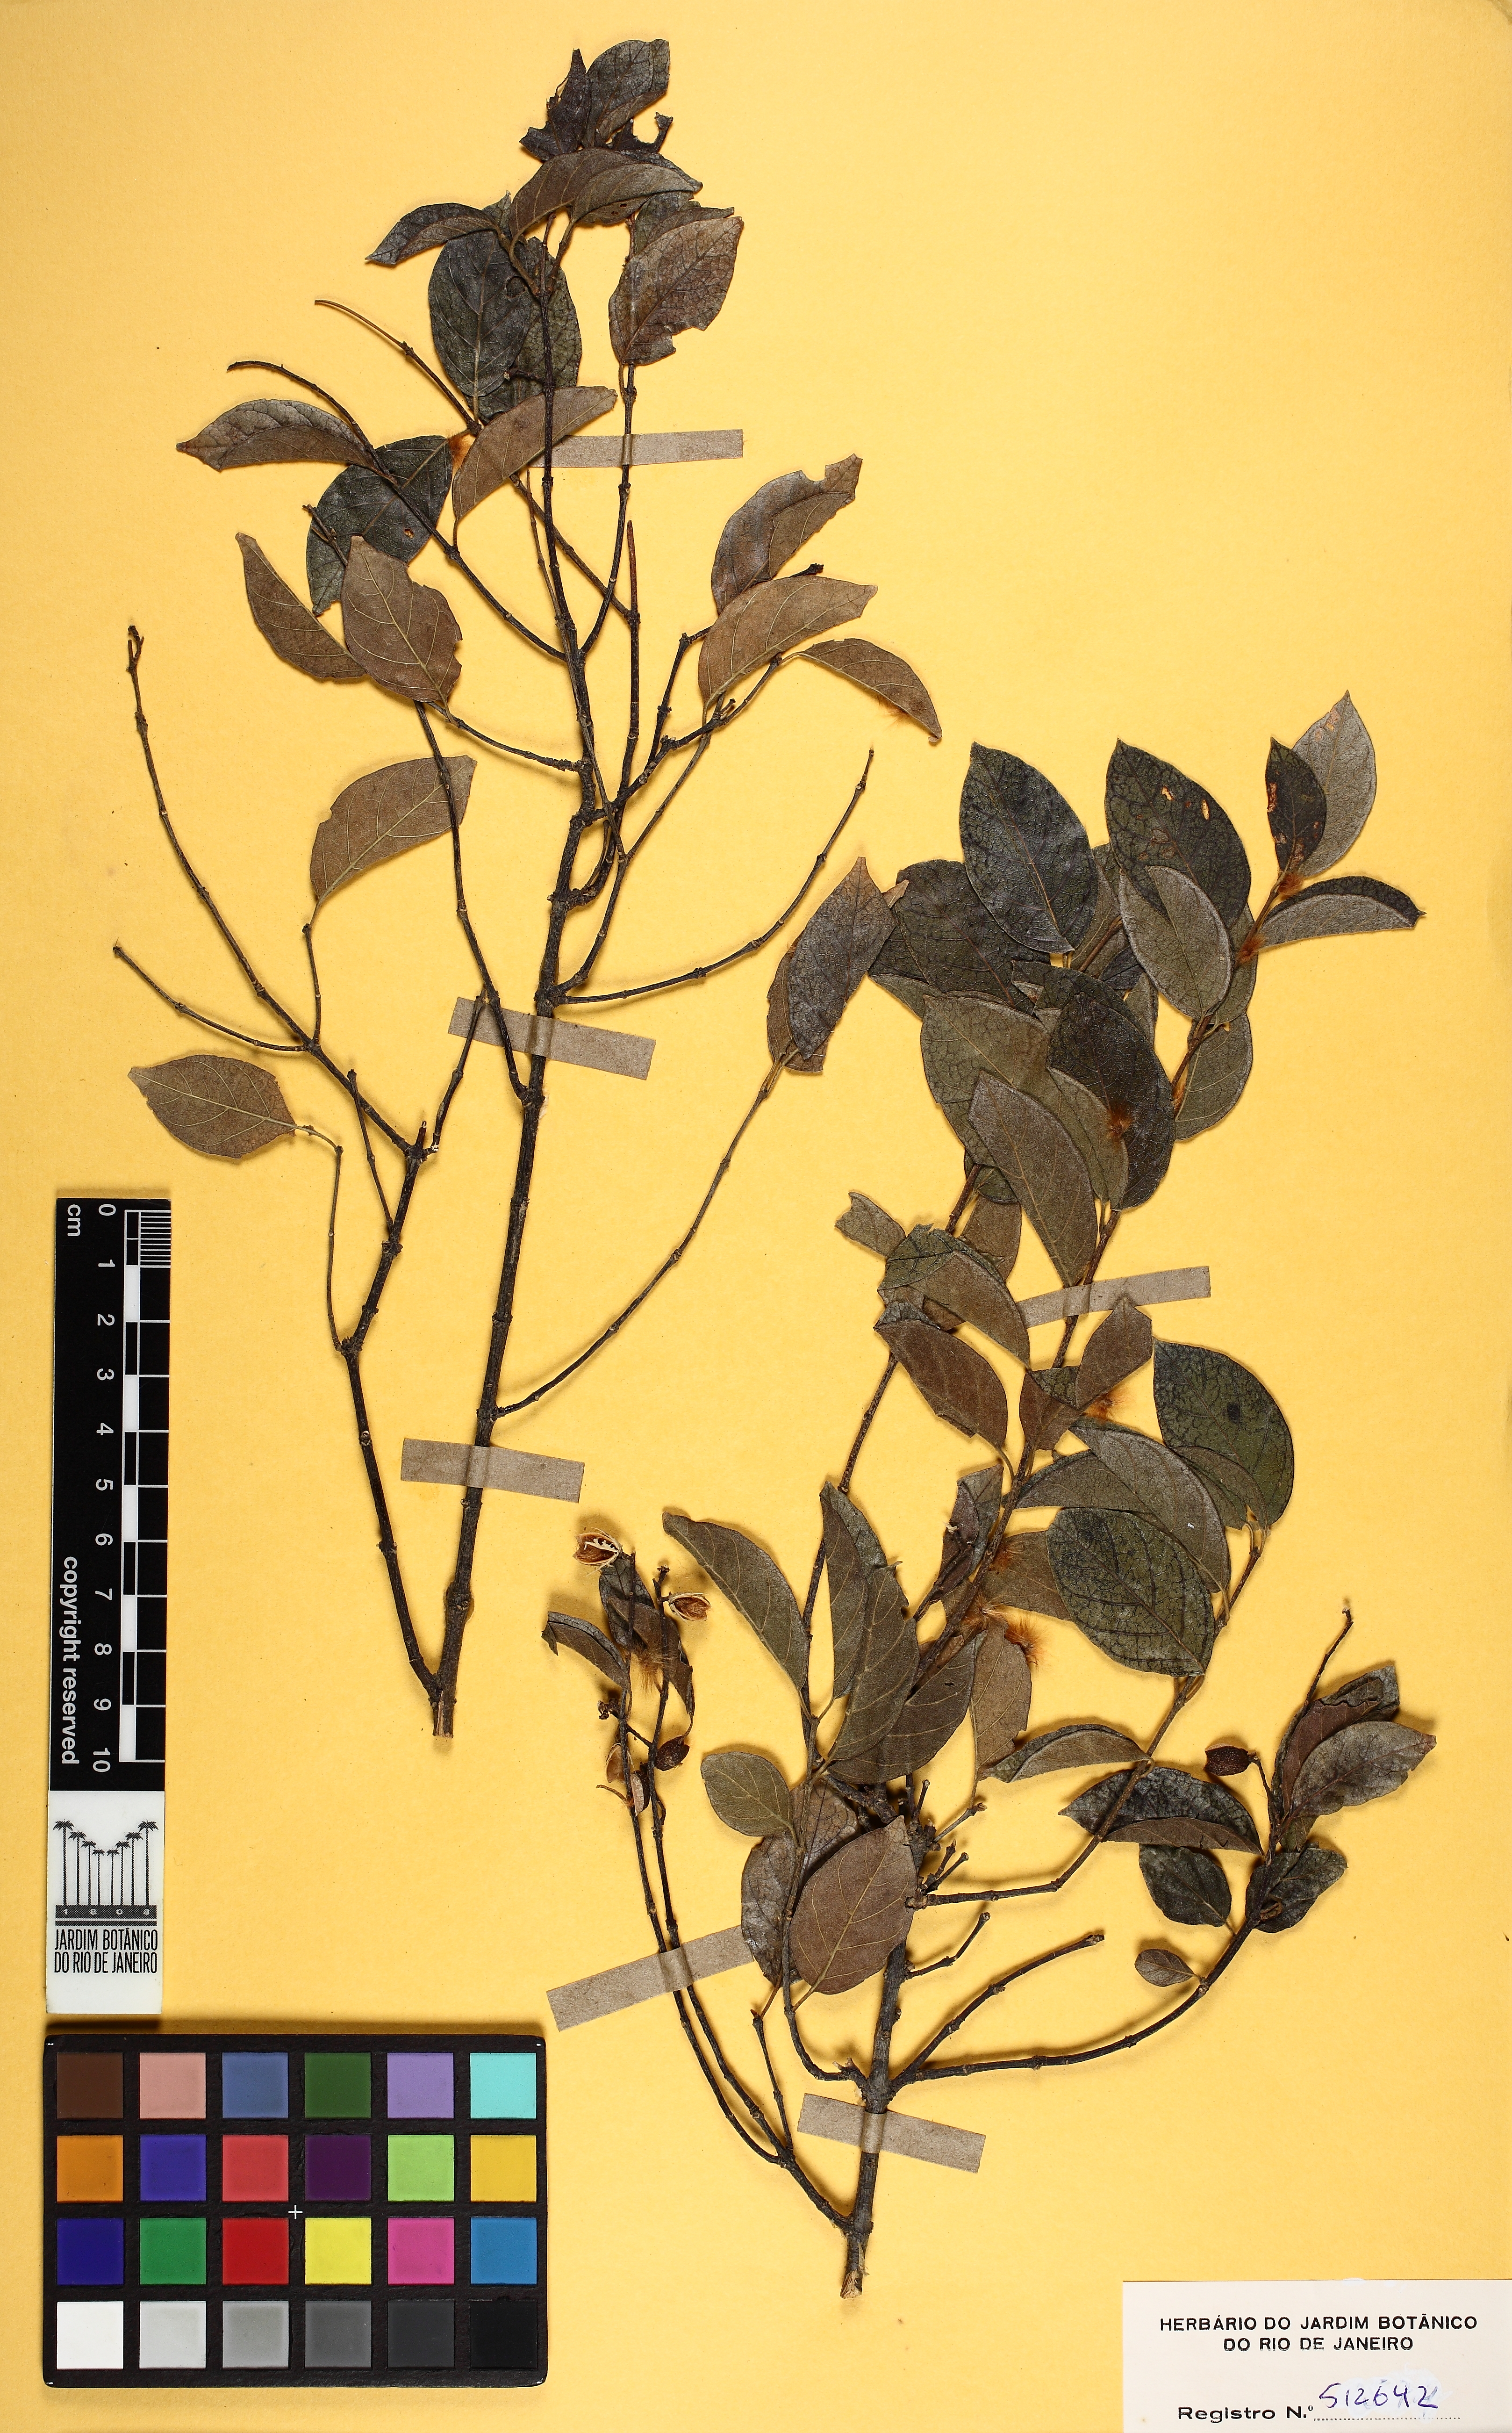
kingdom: Plantae
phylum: Tracheophyta
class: Magnoliopsida
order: Malpighiales
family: Trigoniaceae
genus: Trigonia
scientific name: Trigonia eriosperma
